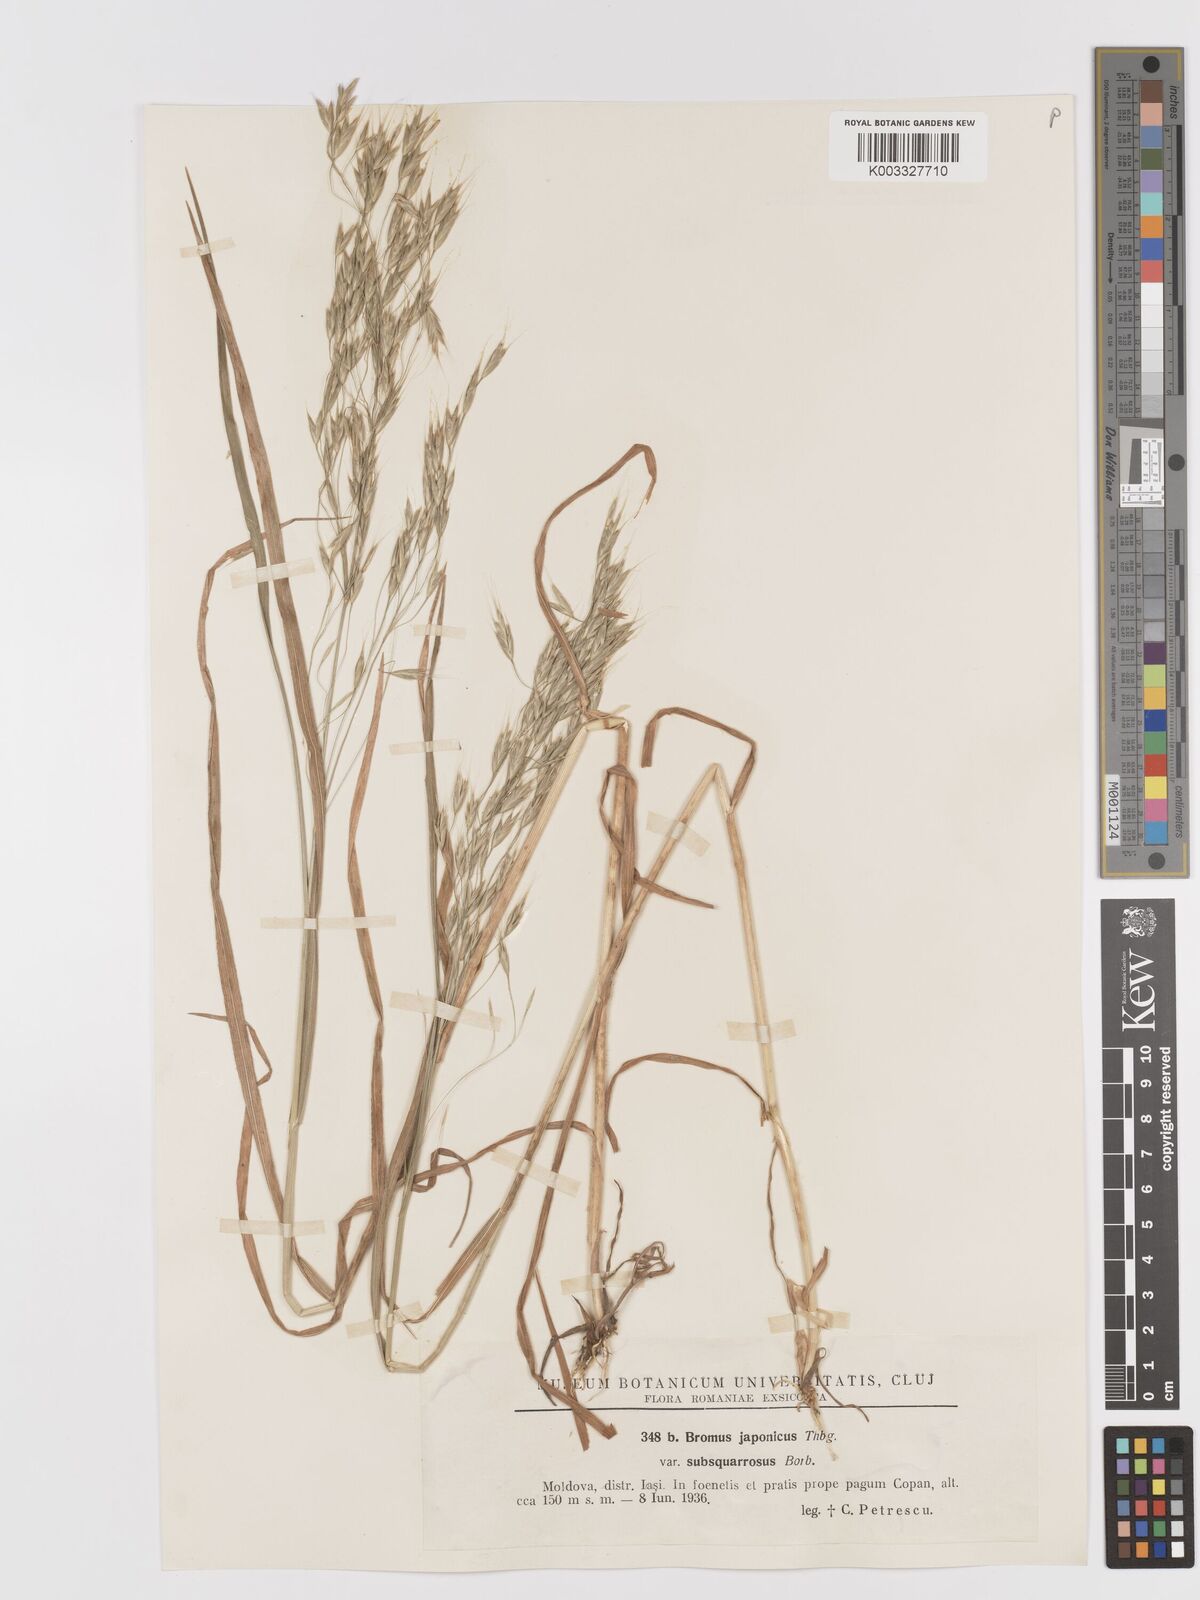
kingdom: Plantae
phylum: Tracheophyta
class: Liliopsida
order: Poales
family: Poaceae
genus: Bromus
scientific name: Bromus japonicus
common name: Japanese brome
